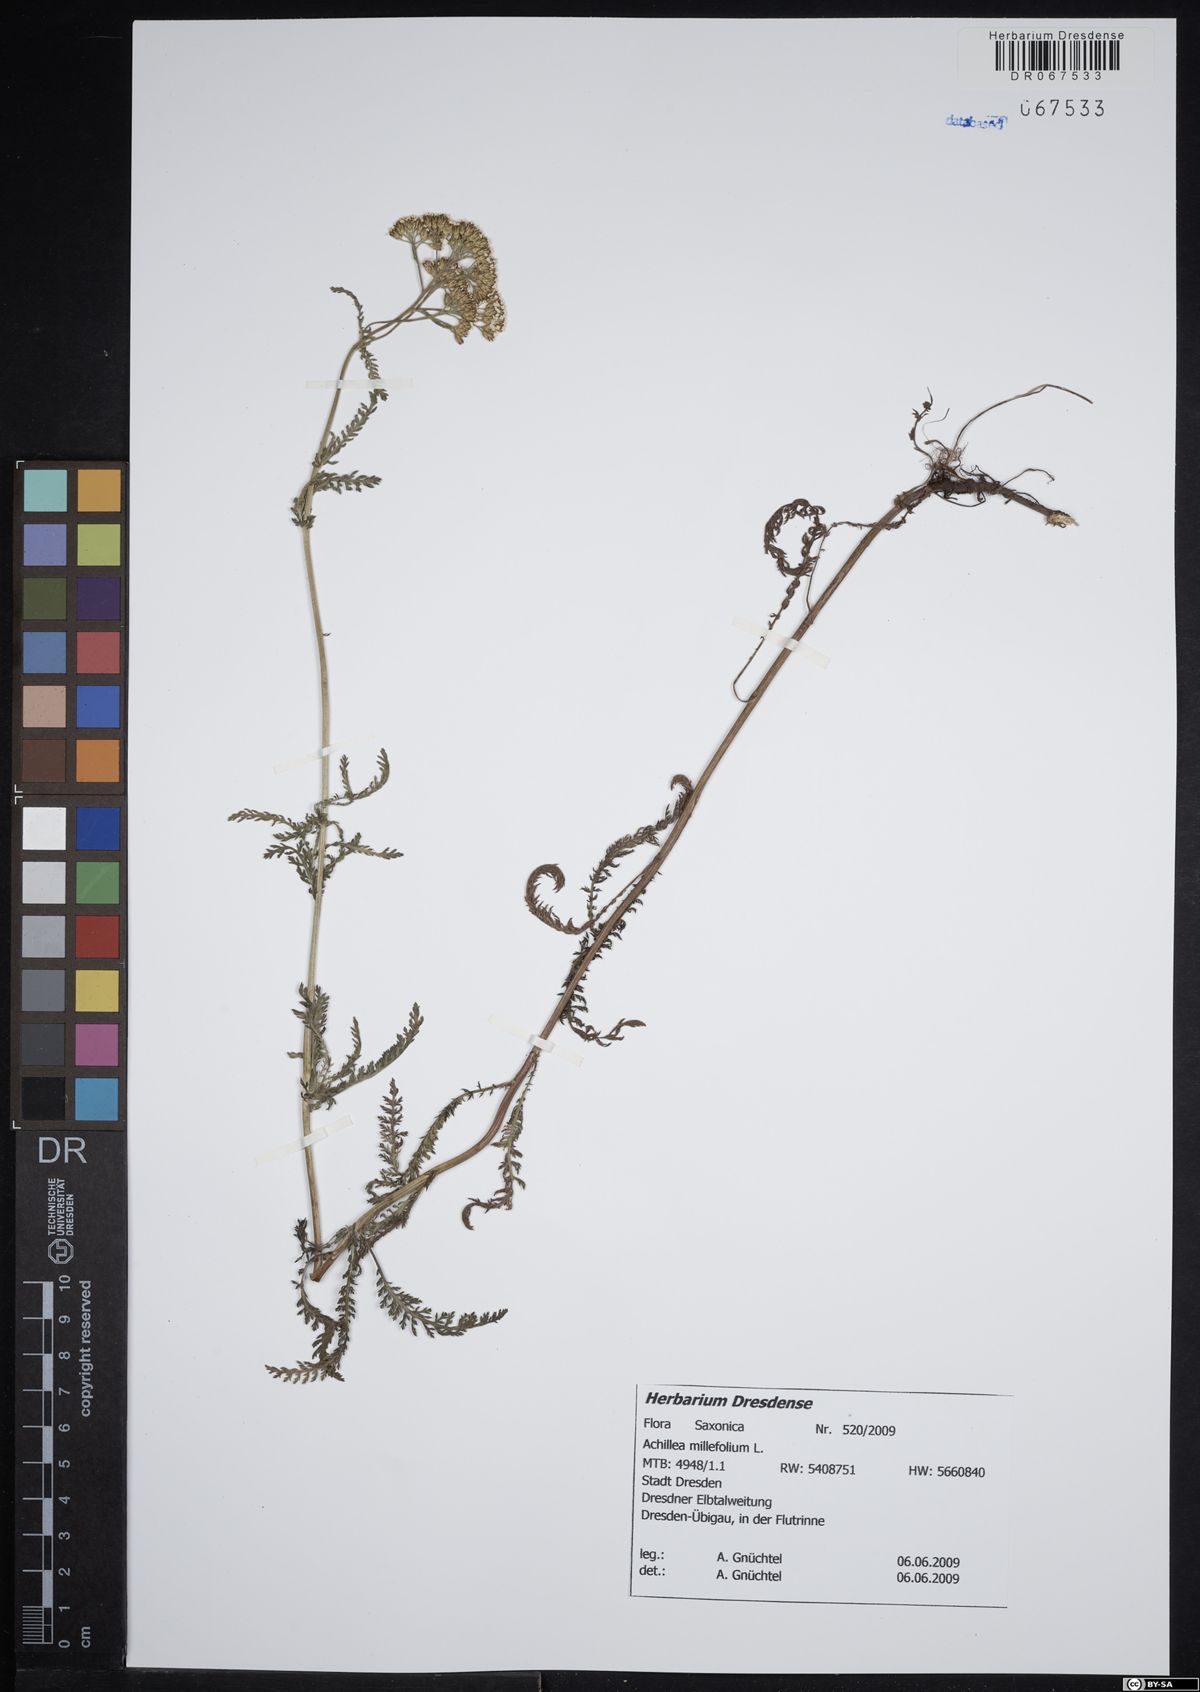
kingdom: Plantae
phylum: Tracheophyta
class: Magnoliopsida
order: Asterales
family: Asteraceae
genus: Achillea
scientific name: Achillea millefolium
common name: Yarrow
